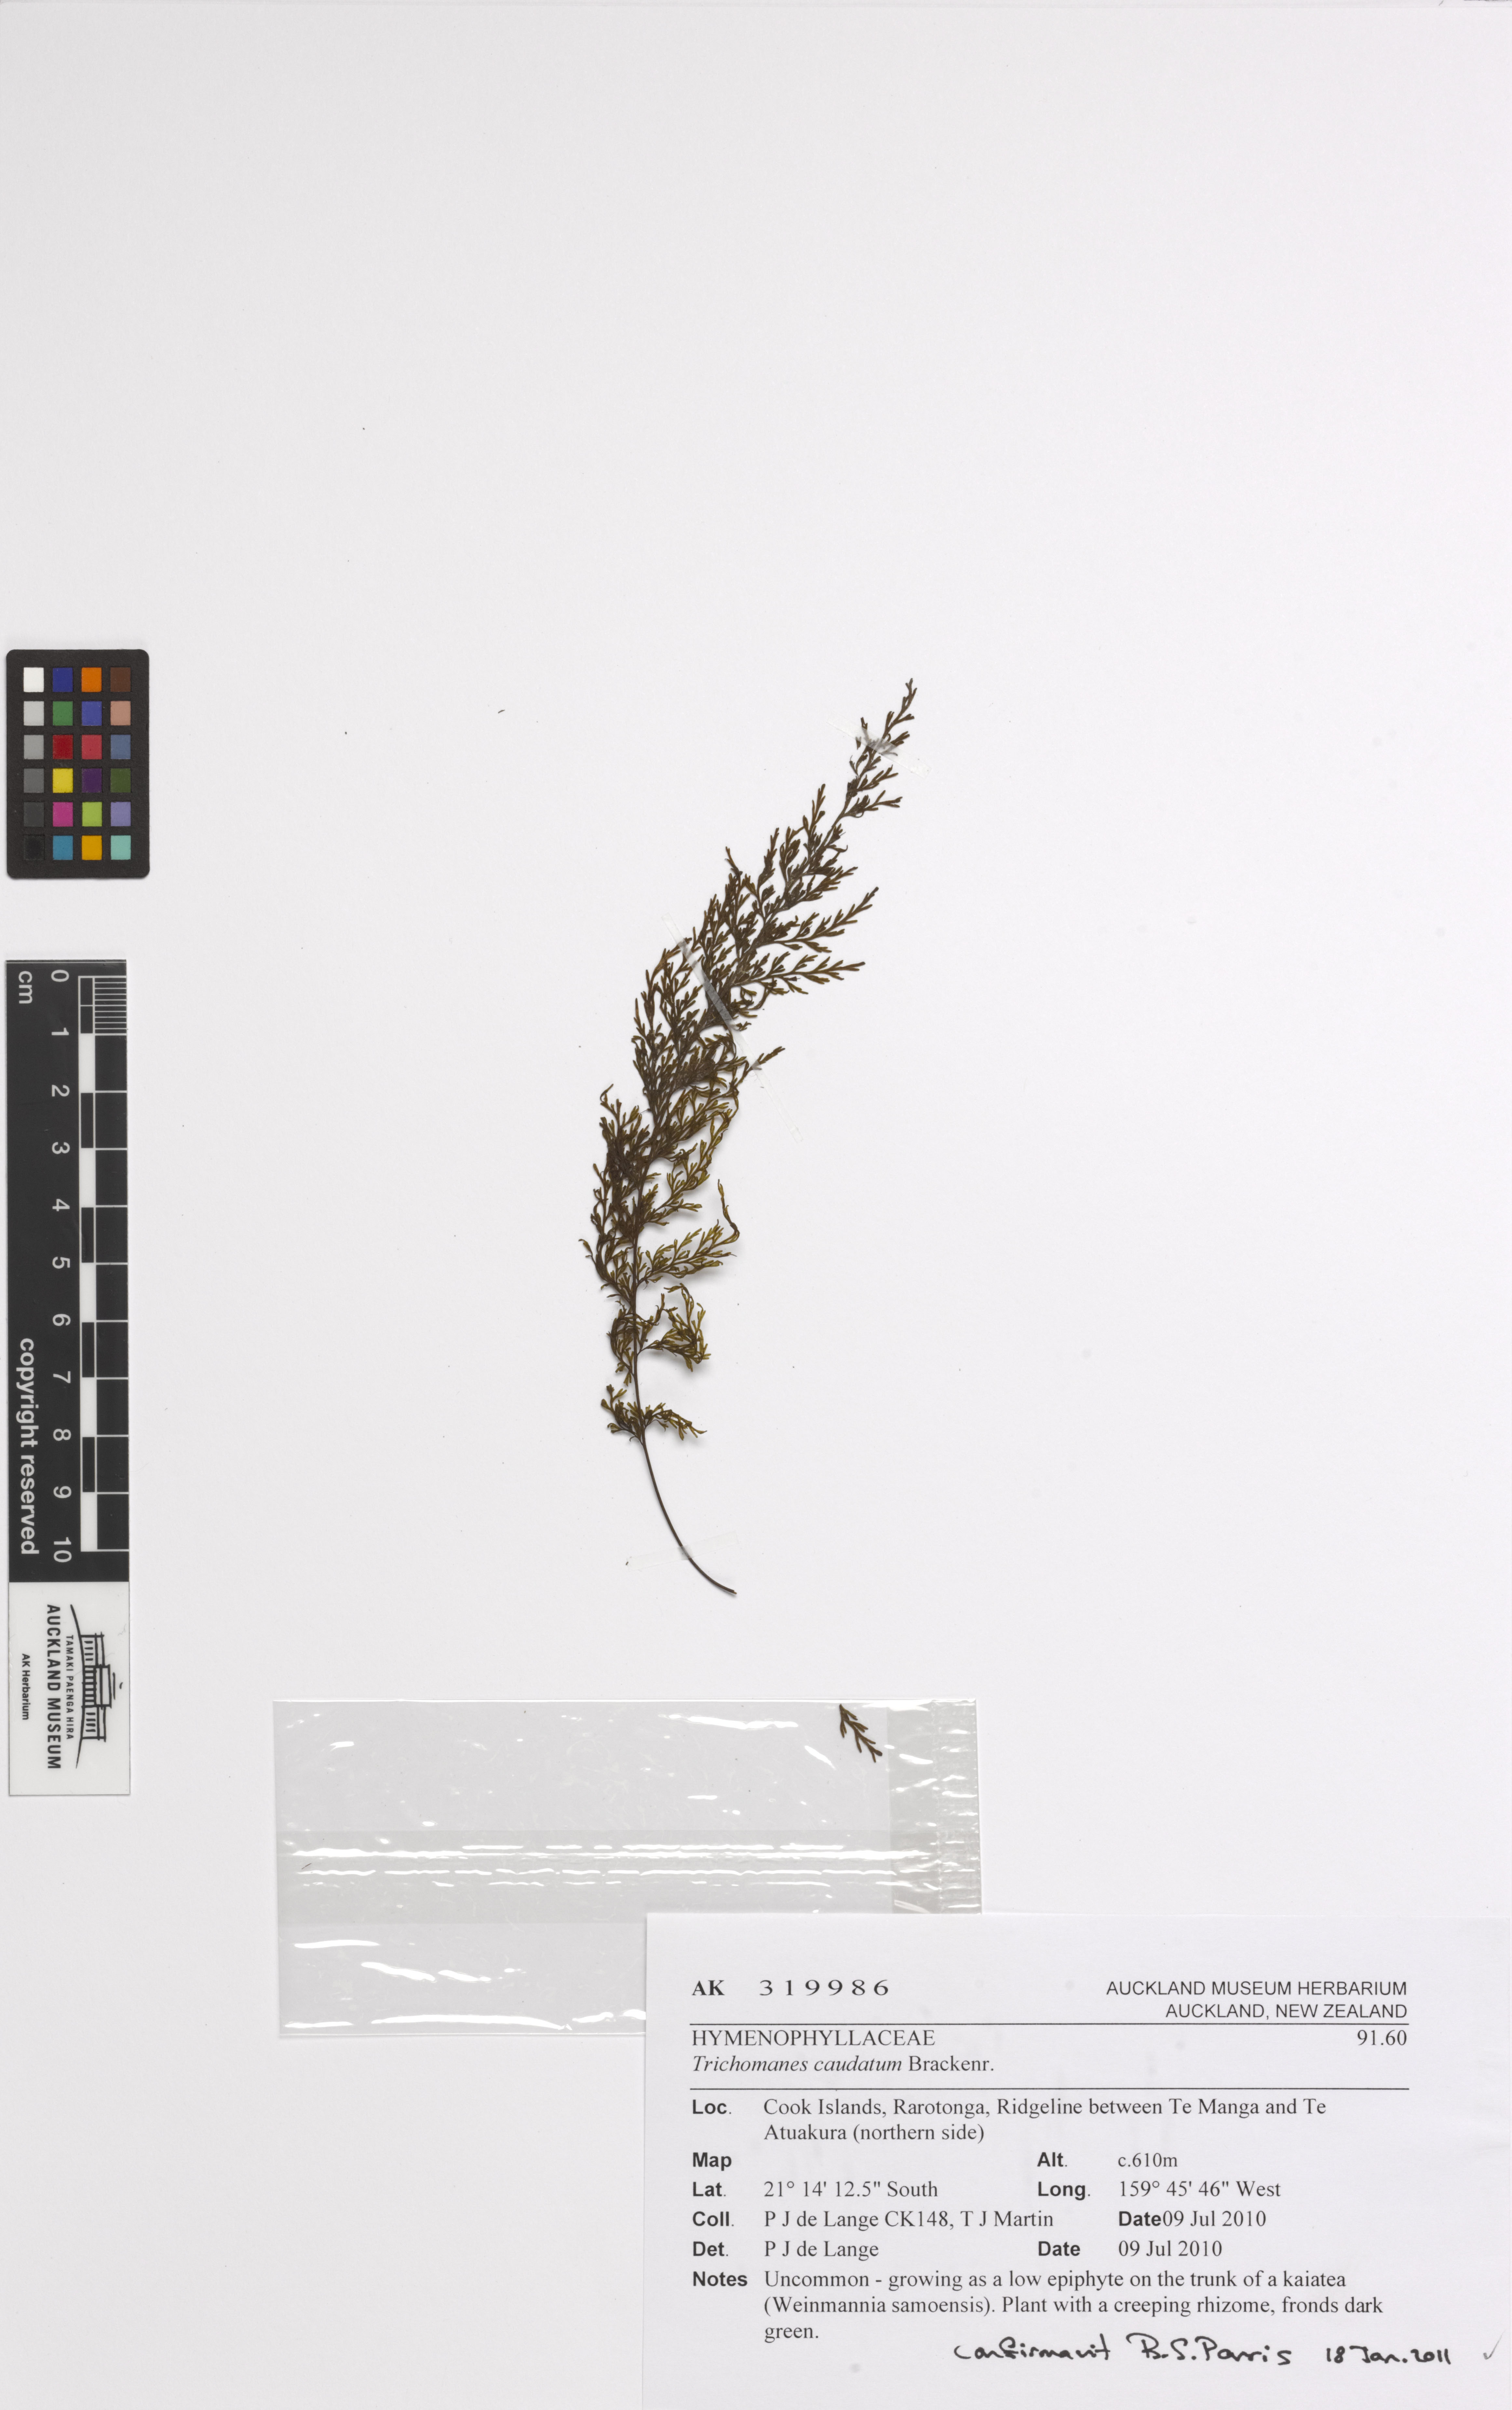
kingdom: Plantae
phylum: Tracheophyta
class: Polypodiopsida
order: Hymenophyllales
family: Hymenophyllaceae
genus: Abrodictyum
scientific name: Abrodictyum caudatum
